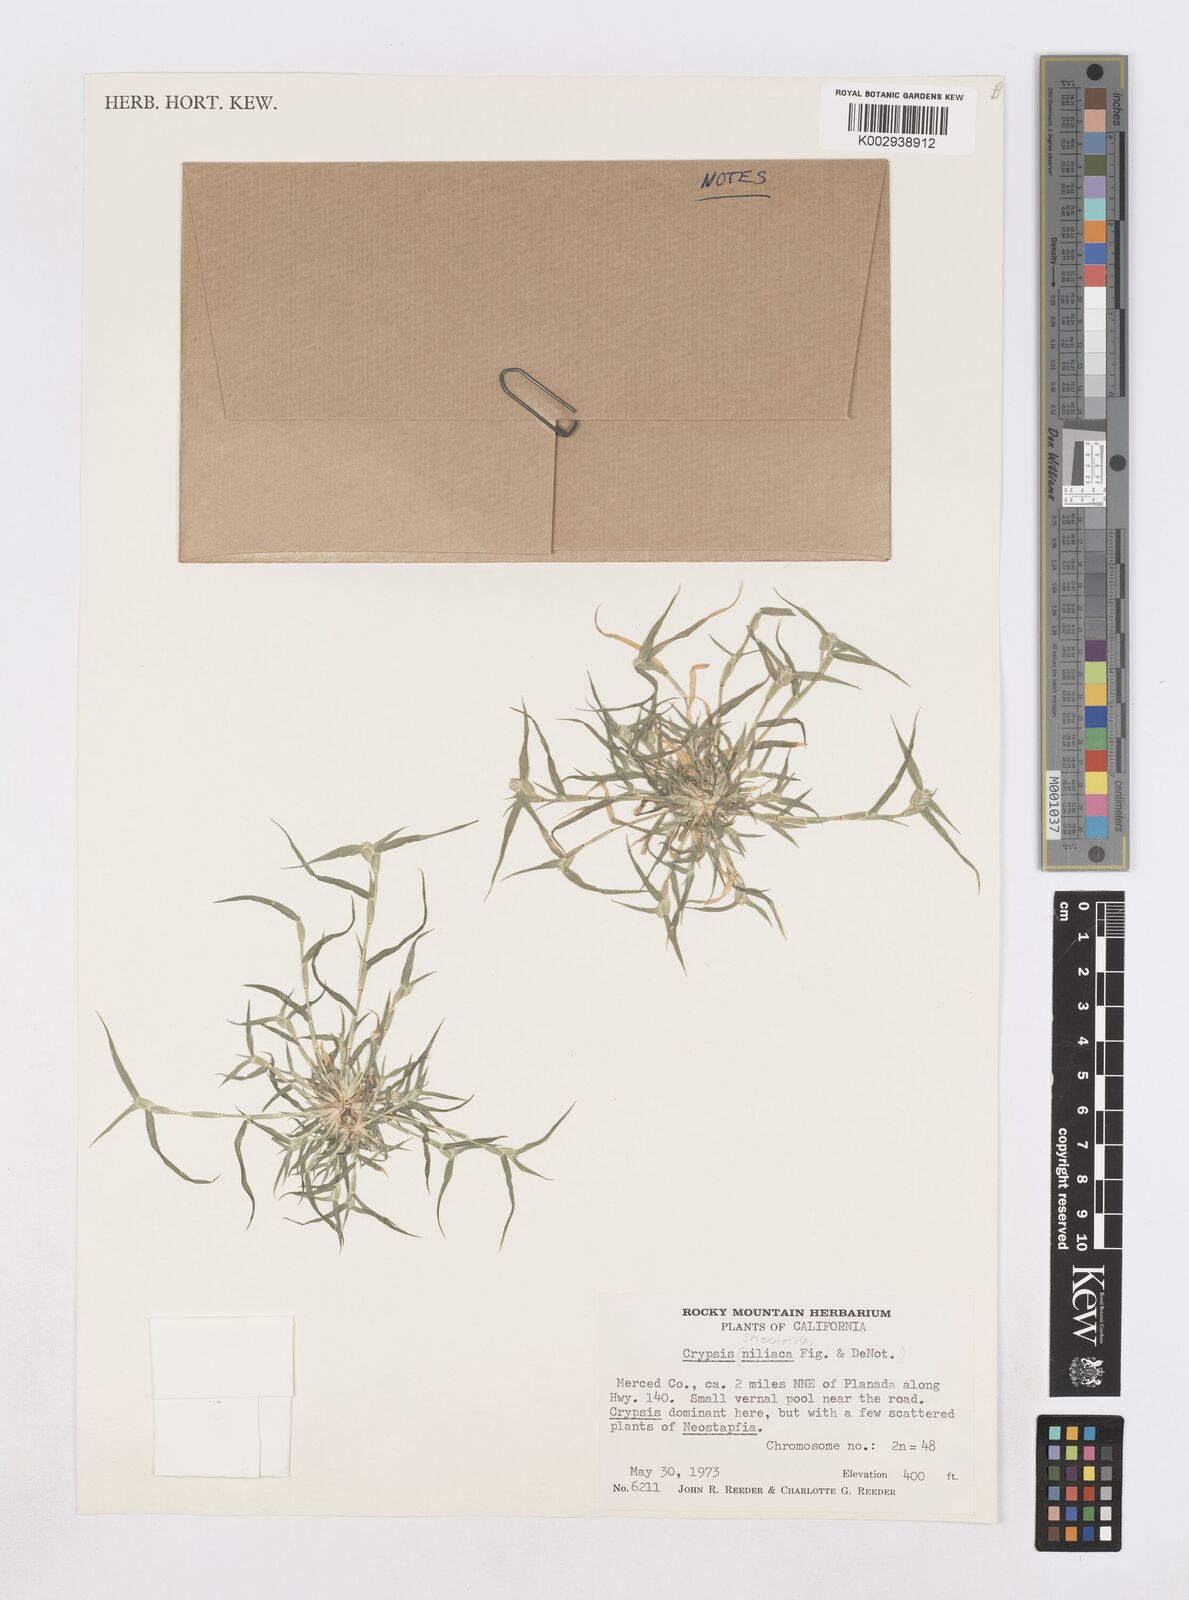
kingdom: Animalia
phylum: Arthropoda
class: Insecta
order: Coleoptera
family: Tenebrionidae
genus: Crypsis
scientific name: Crypsis
